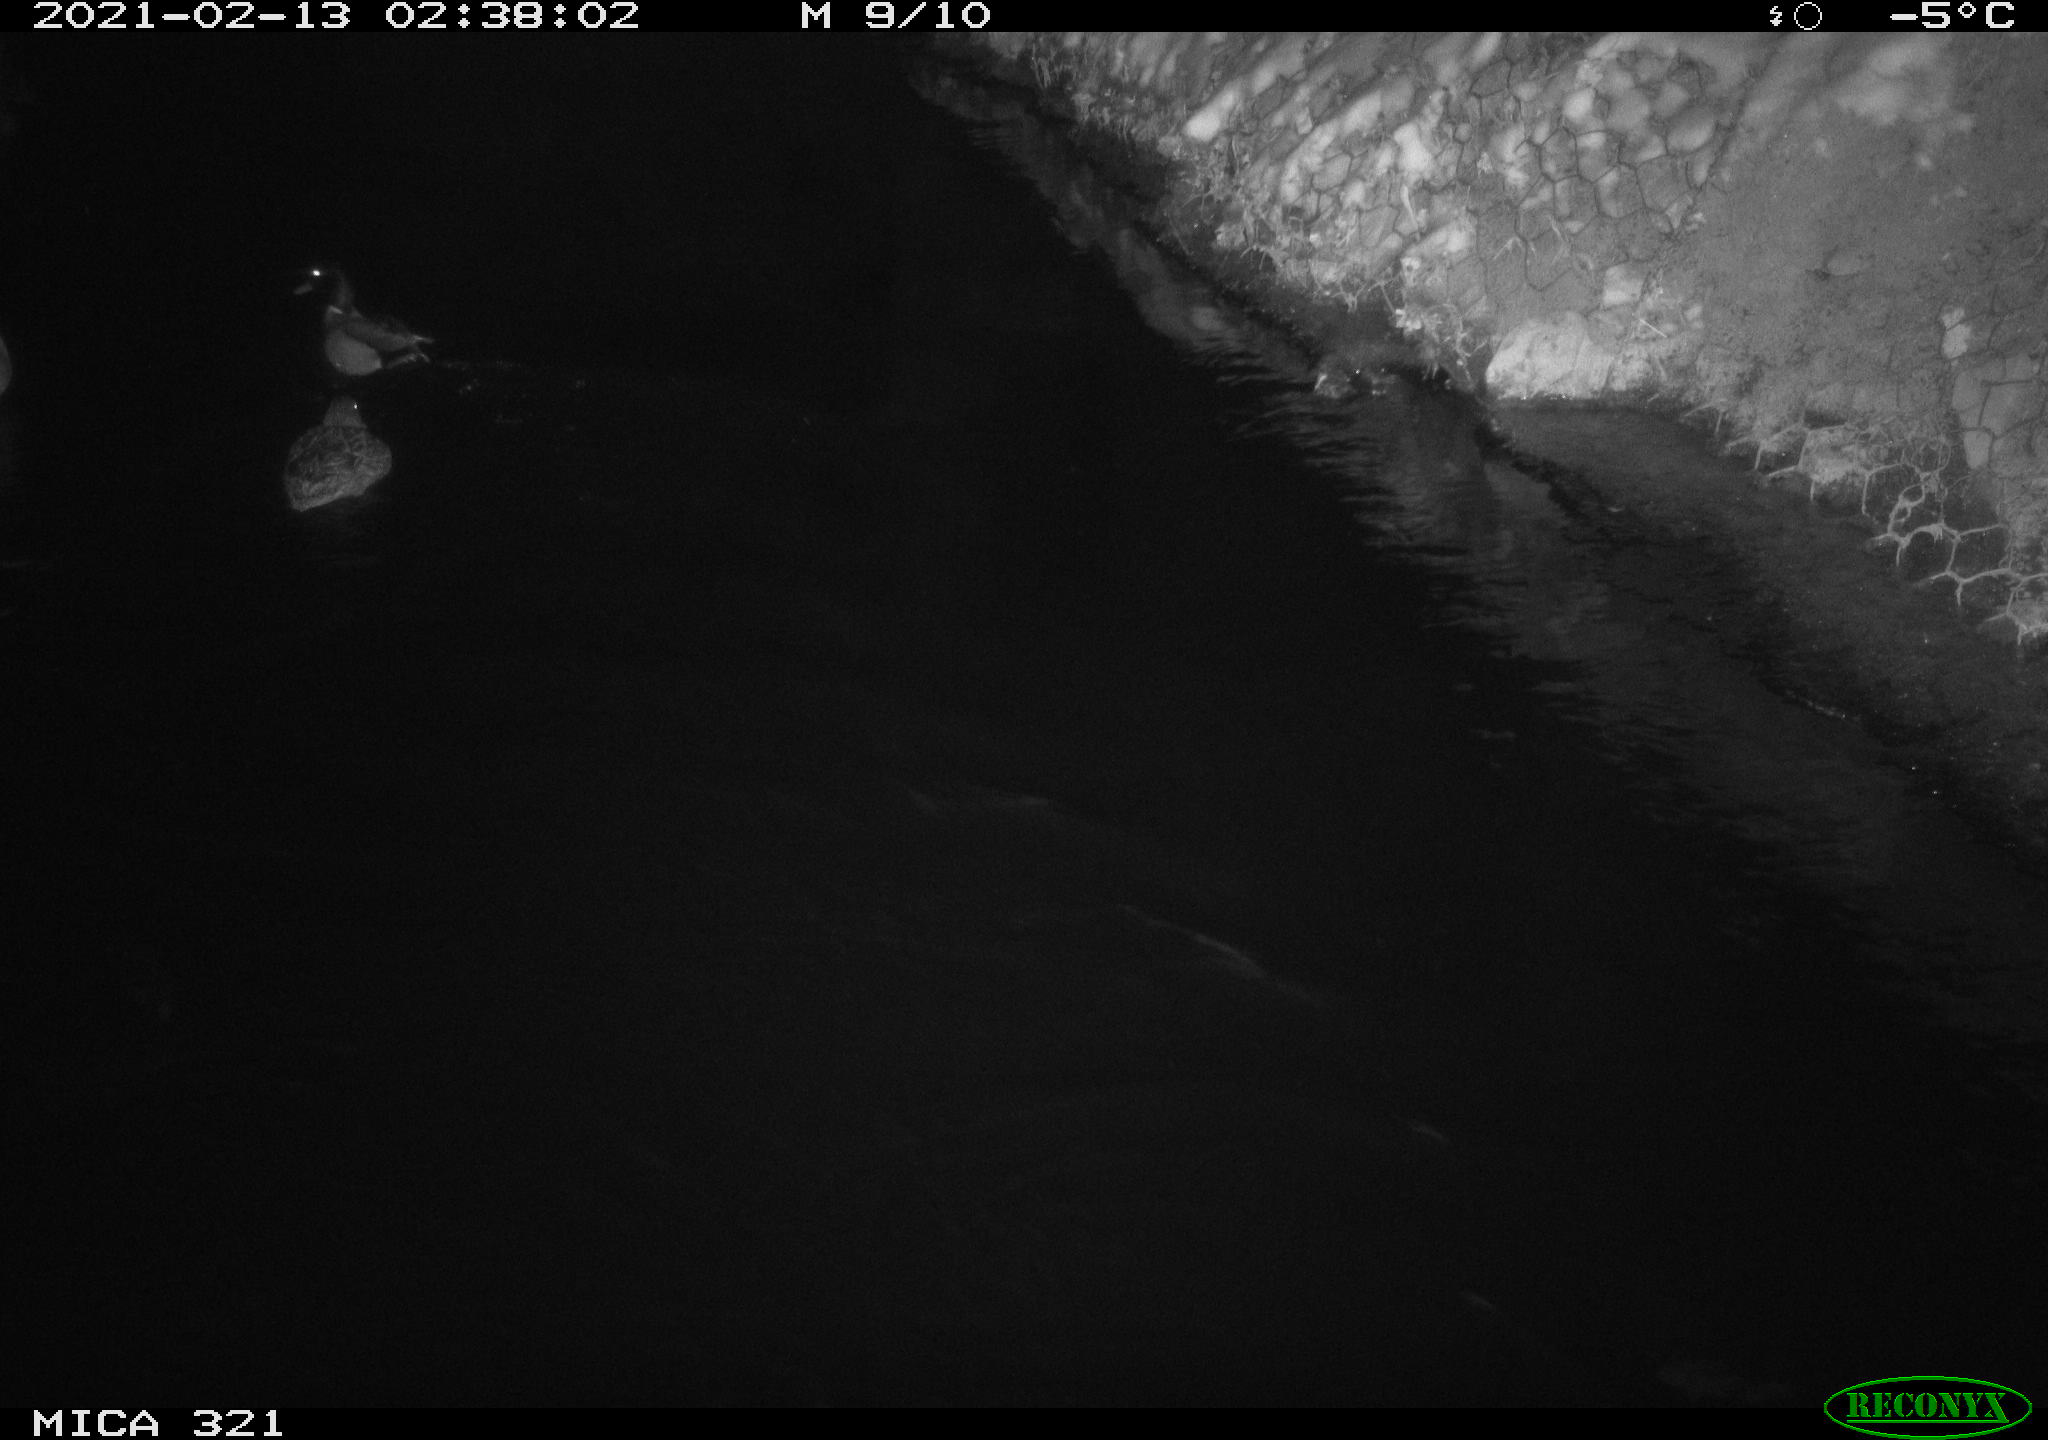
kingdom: Animalia
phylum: Chordata
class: Aves
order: Anseriformes
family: Anatidae
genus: Anas
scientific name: Anas platyrhynchos
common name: Mallard
